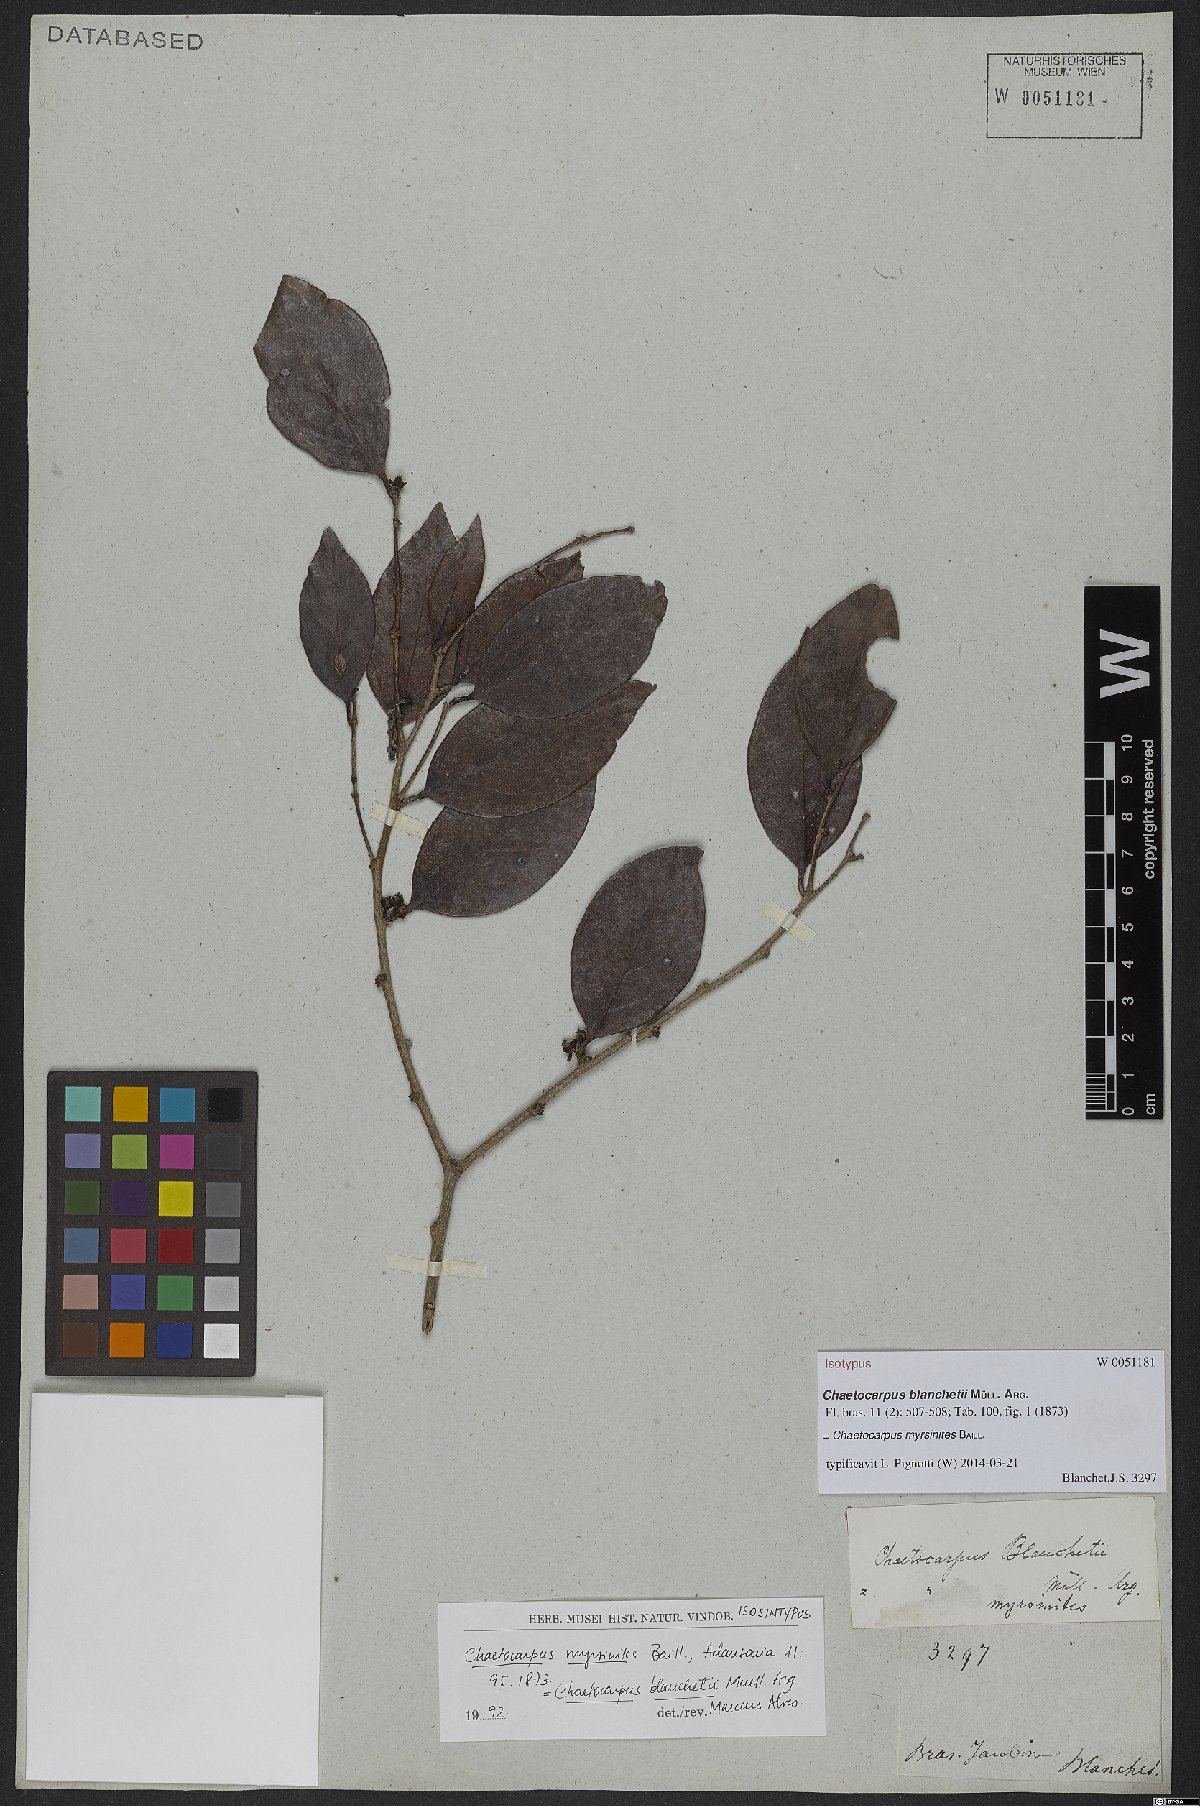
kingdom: Plantae
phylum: Tracheophyta
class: Magnoliopsida
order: Malpighiales
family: Peraceae
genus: Chaetocarpus
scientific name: Chaetocarpus myrsinites
